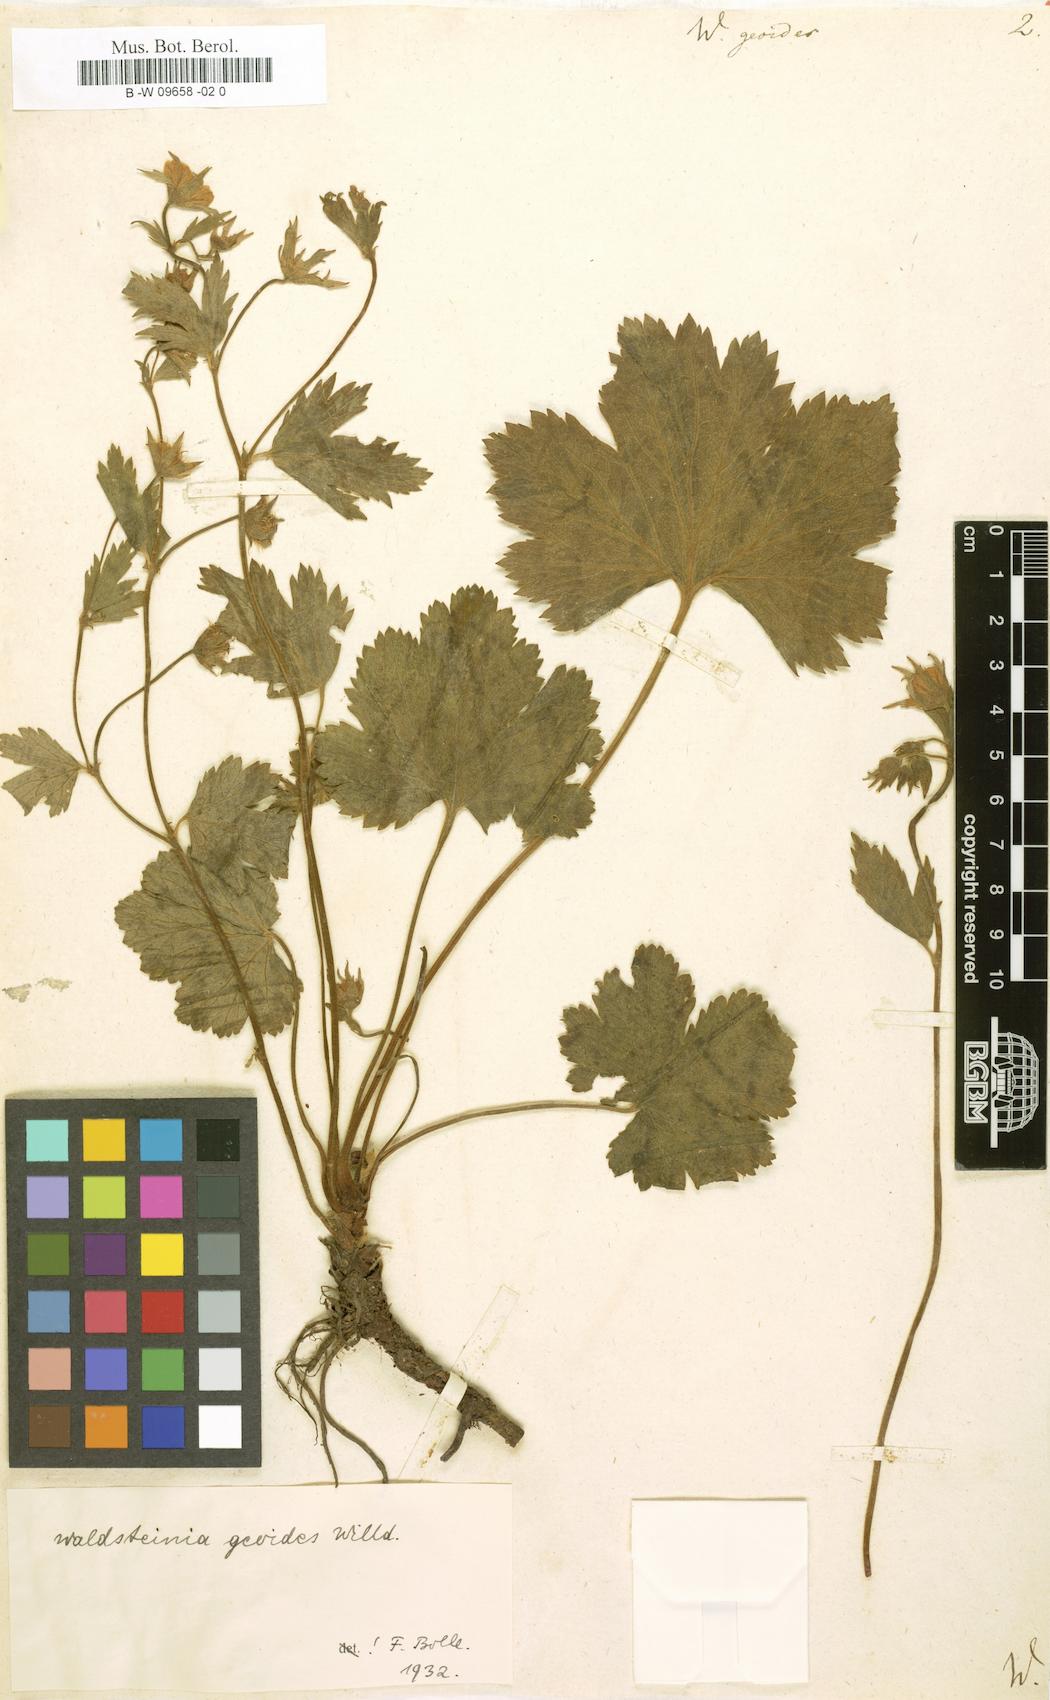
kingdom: Plantae
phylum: Tracheophyta
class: Magnoliopsida
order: Rosales
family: Rosaceae
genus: Geum
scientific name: Geum waldsteinia
